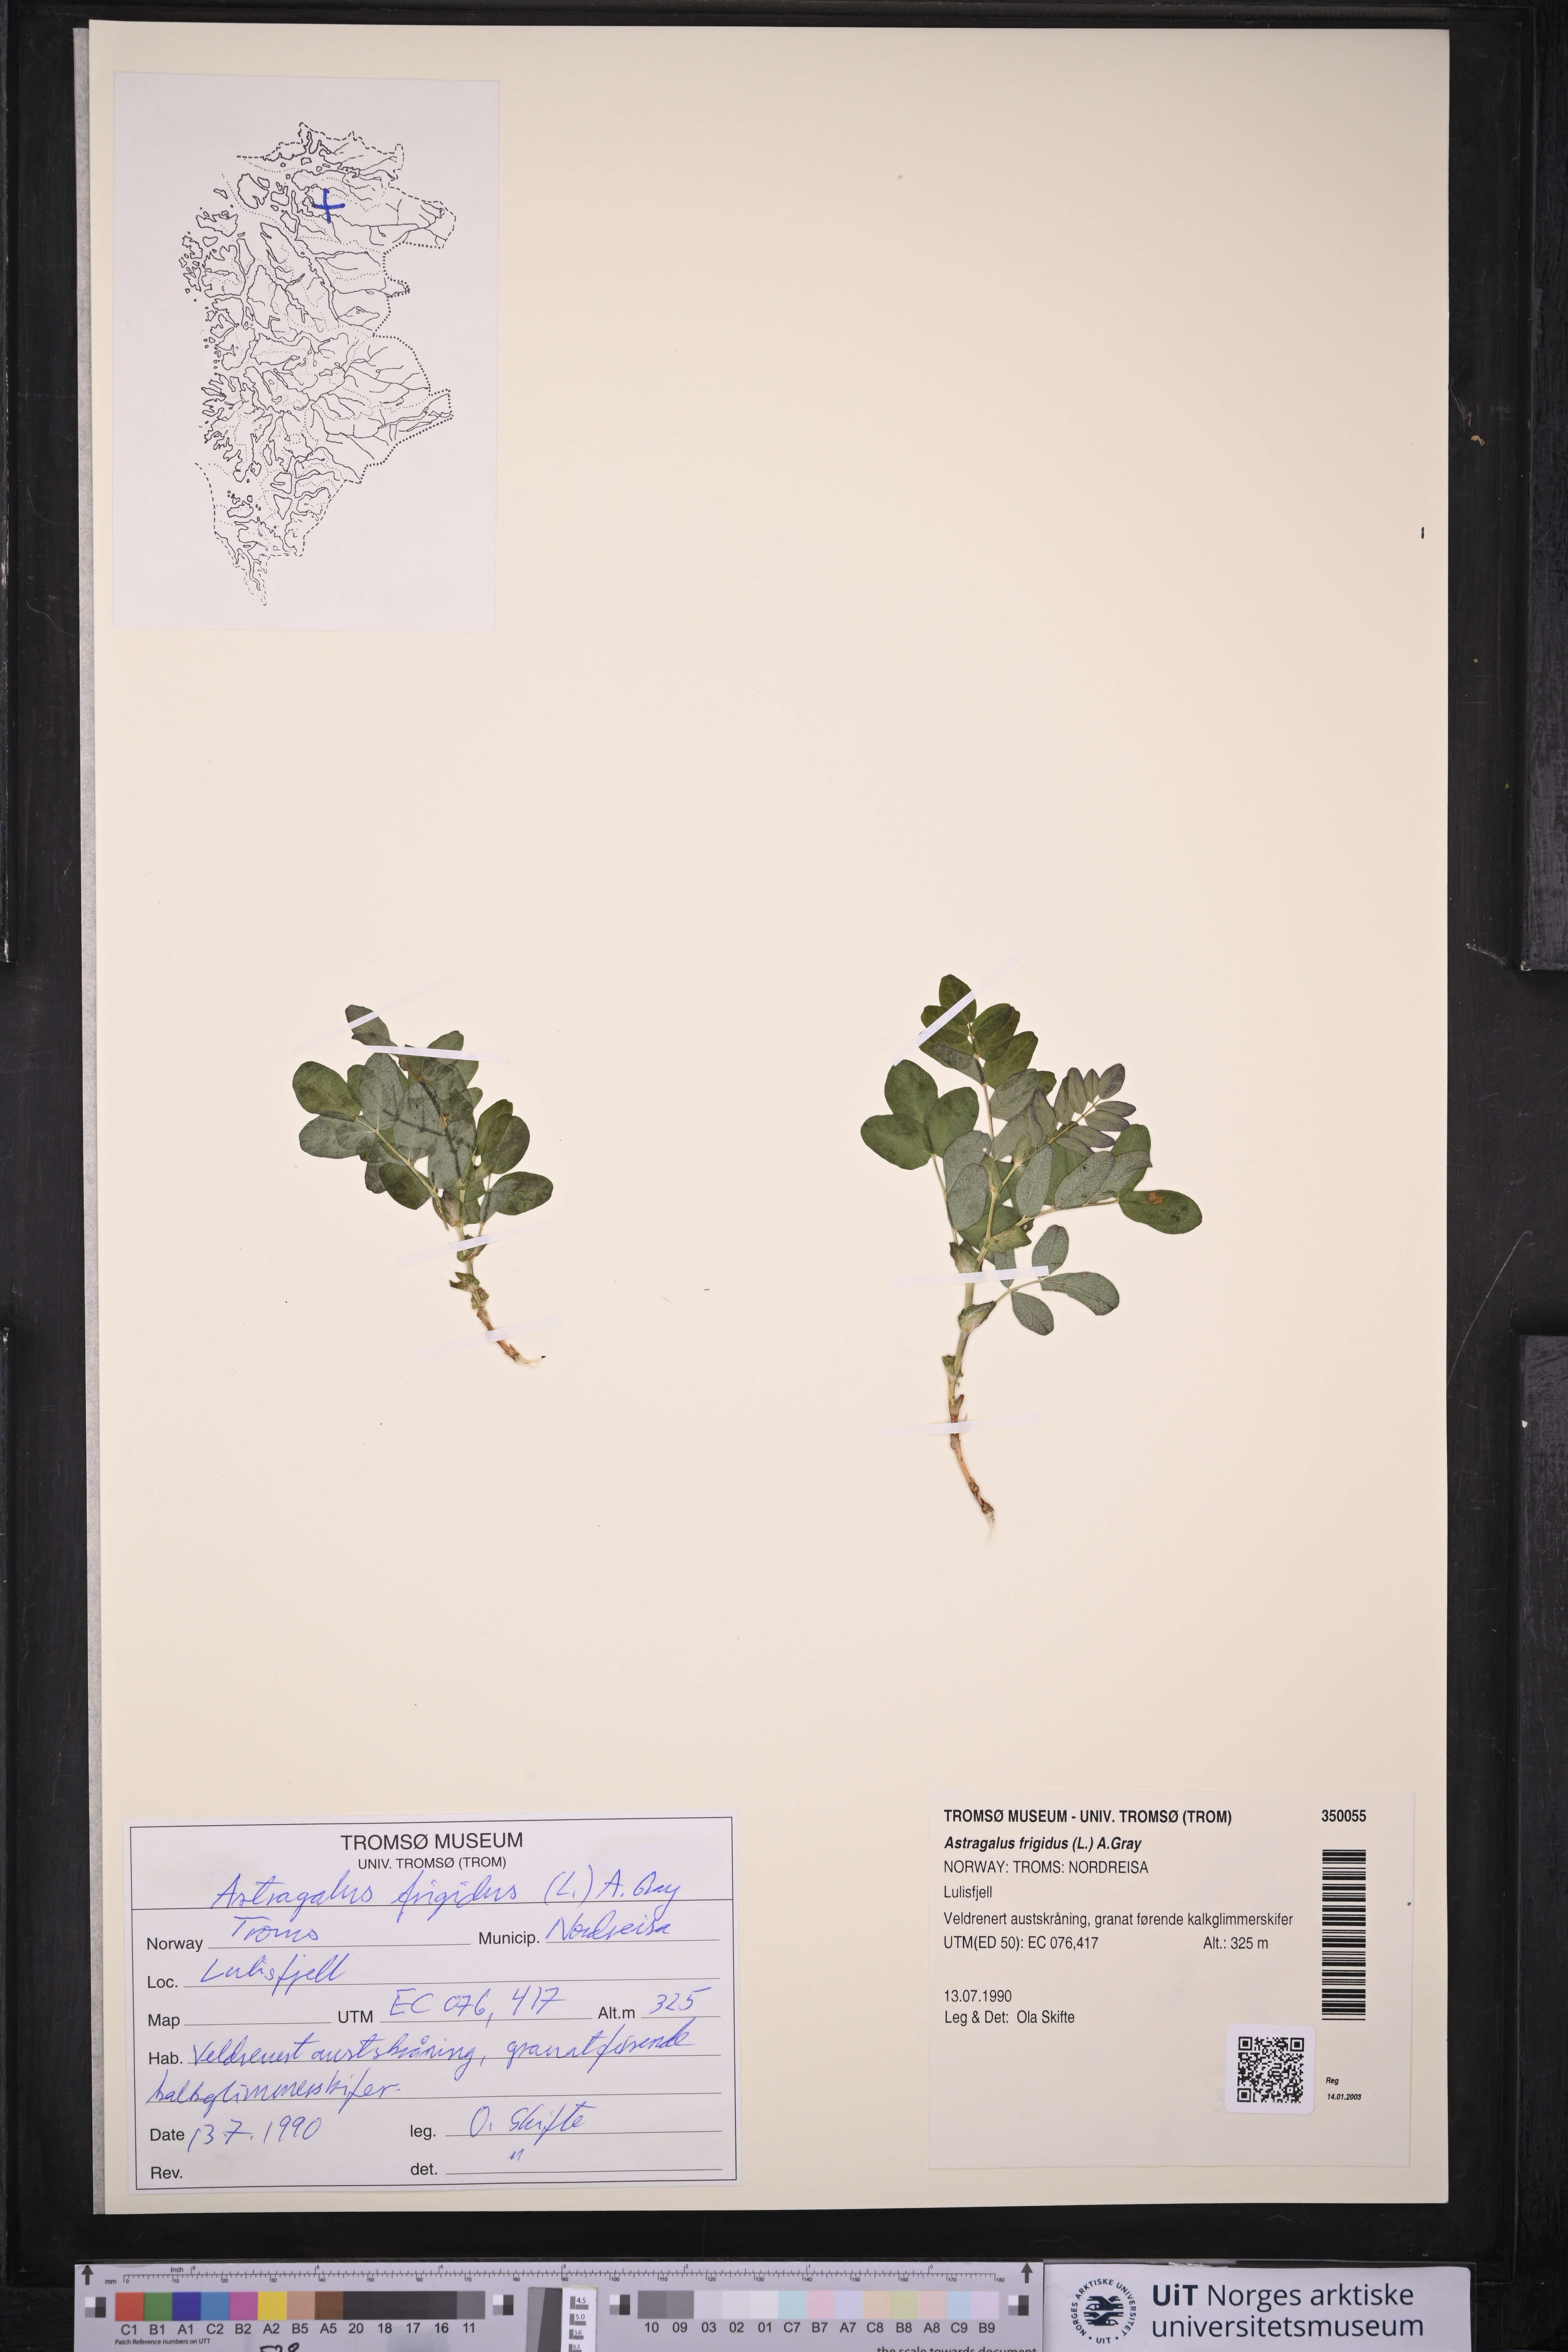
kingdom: Plantae
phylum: Tracheophyta
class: Magnoliopsida
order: Fabales
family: Fabaceae
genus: Astragalus
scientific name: Astragalus frigidus
